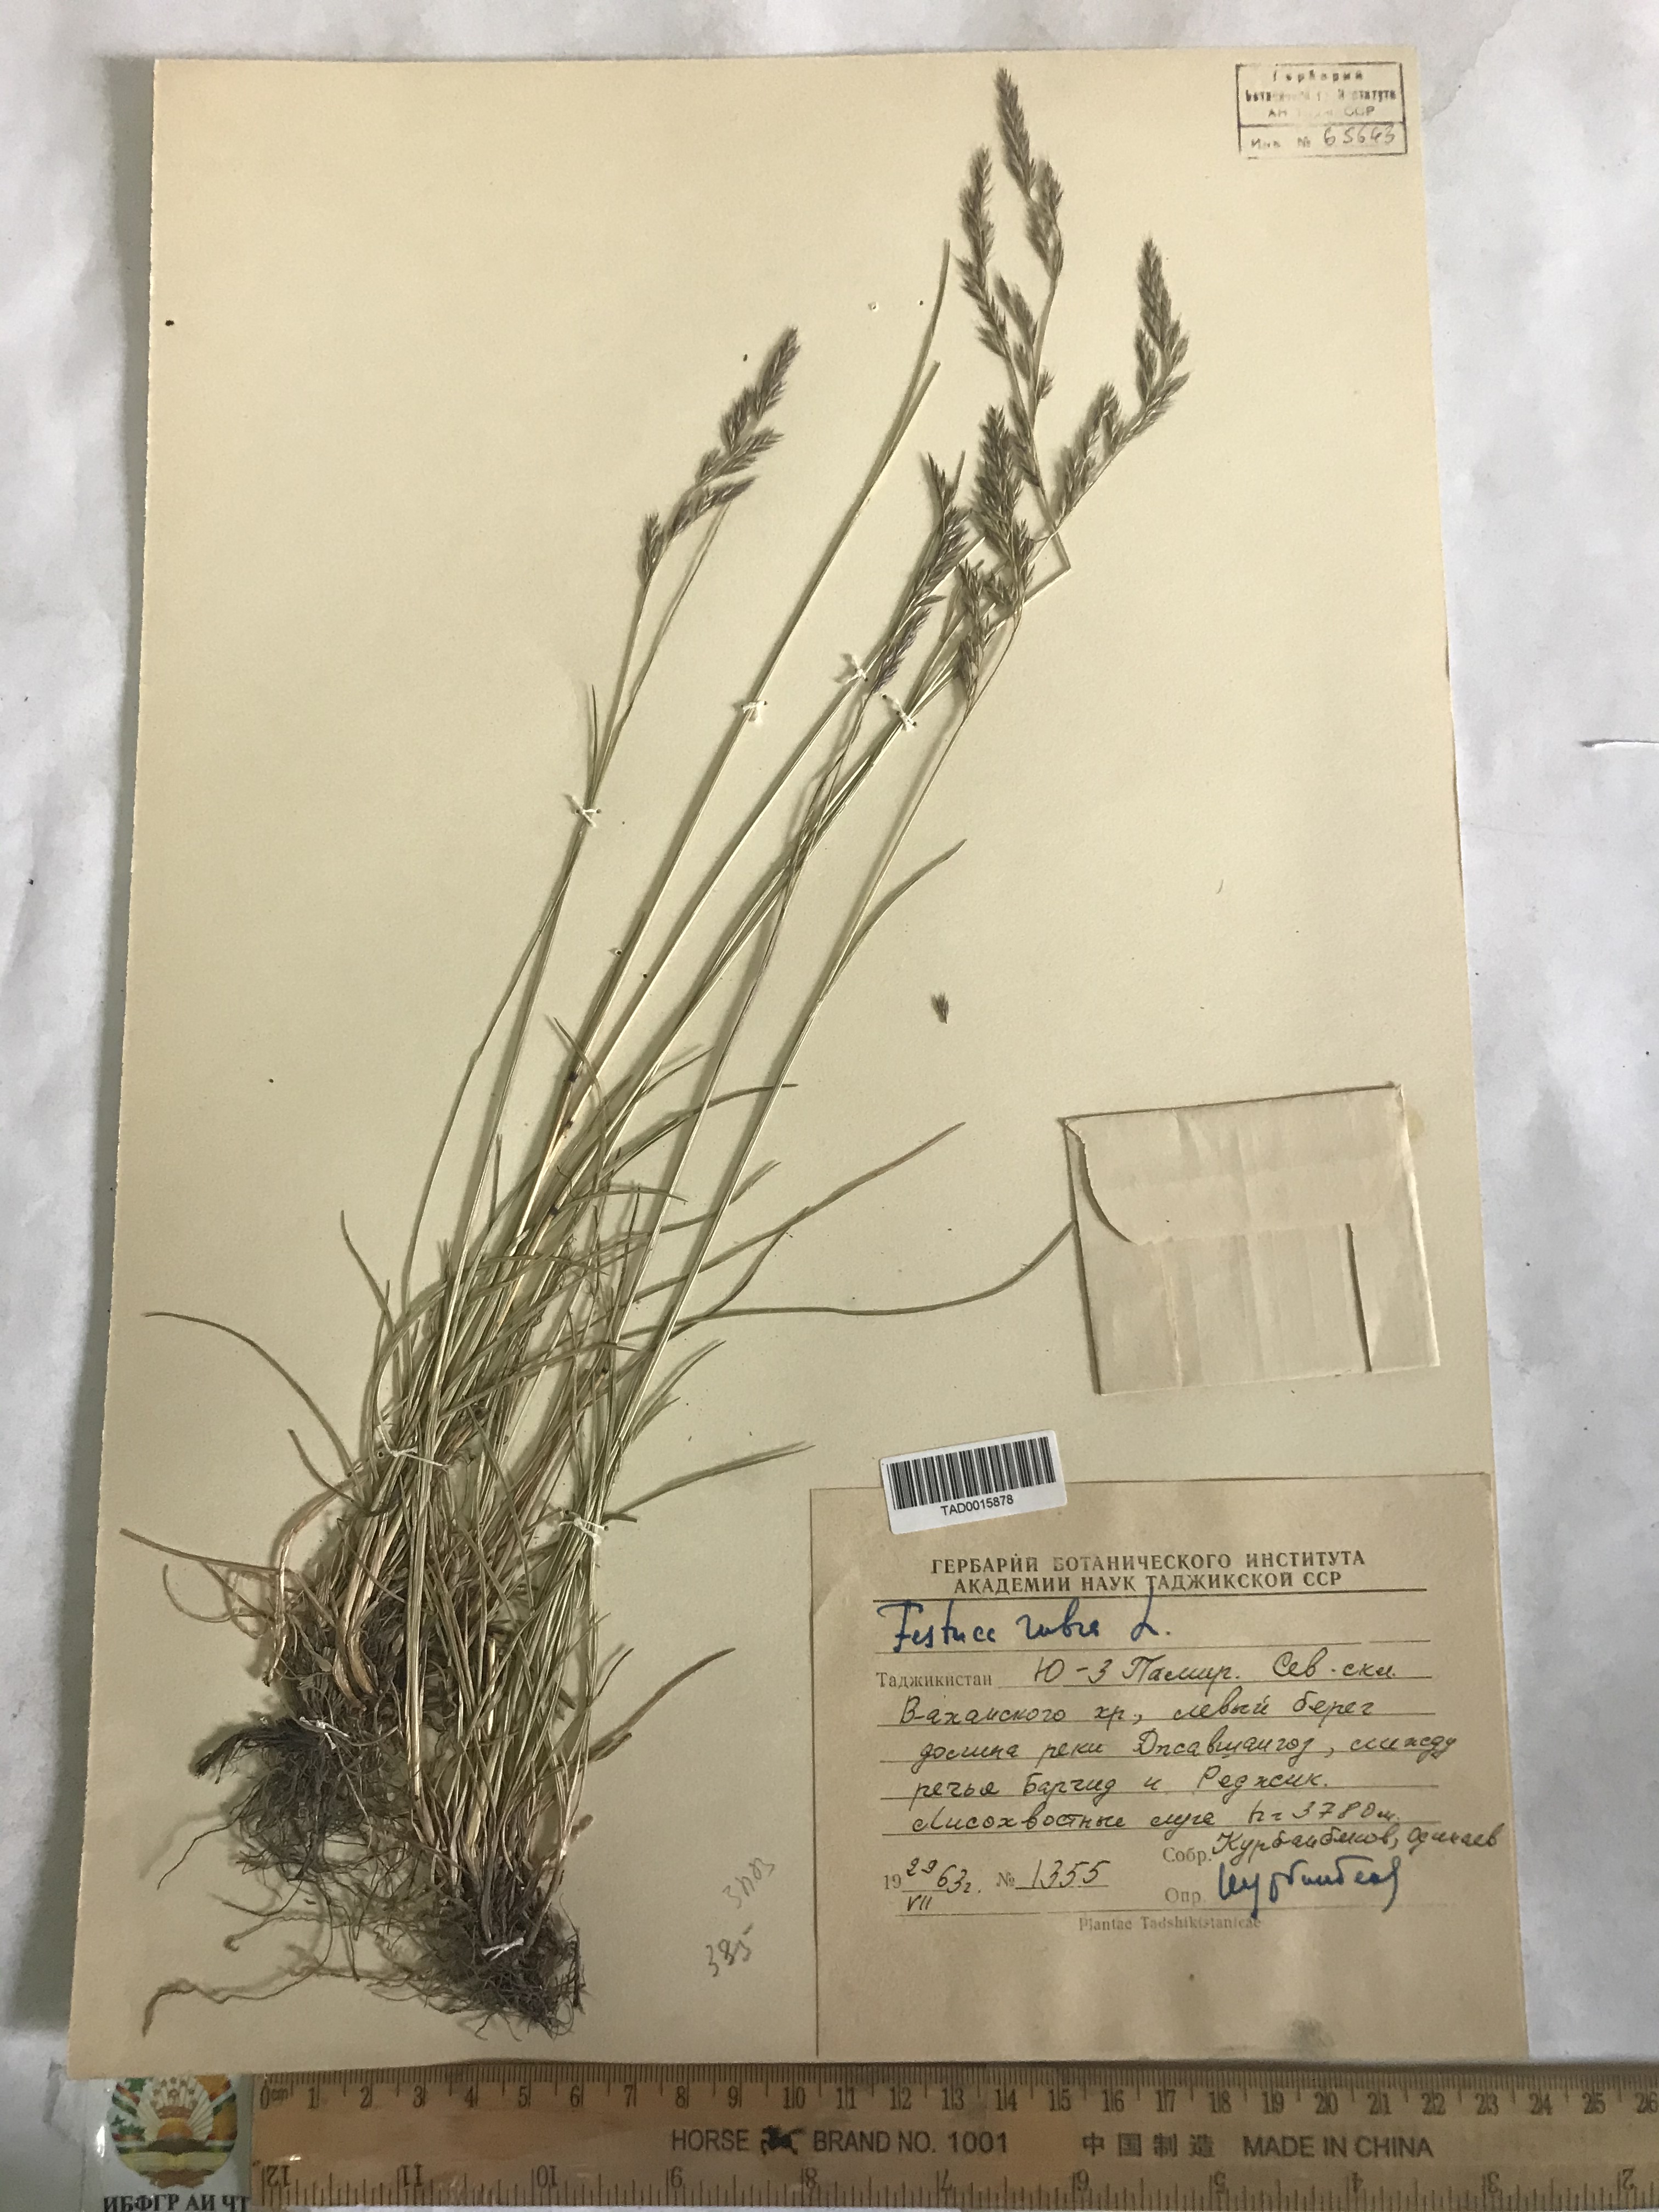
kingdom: Plantae
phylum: Tracheophyta
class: Liliopsida
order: Poales
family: Poaceae
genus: Festuca
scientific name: Festuca rubra
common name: Red fescue
